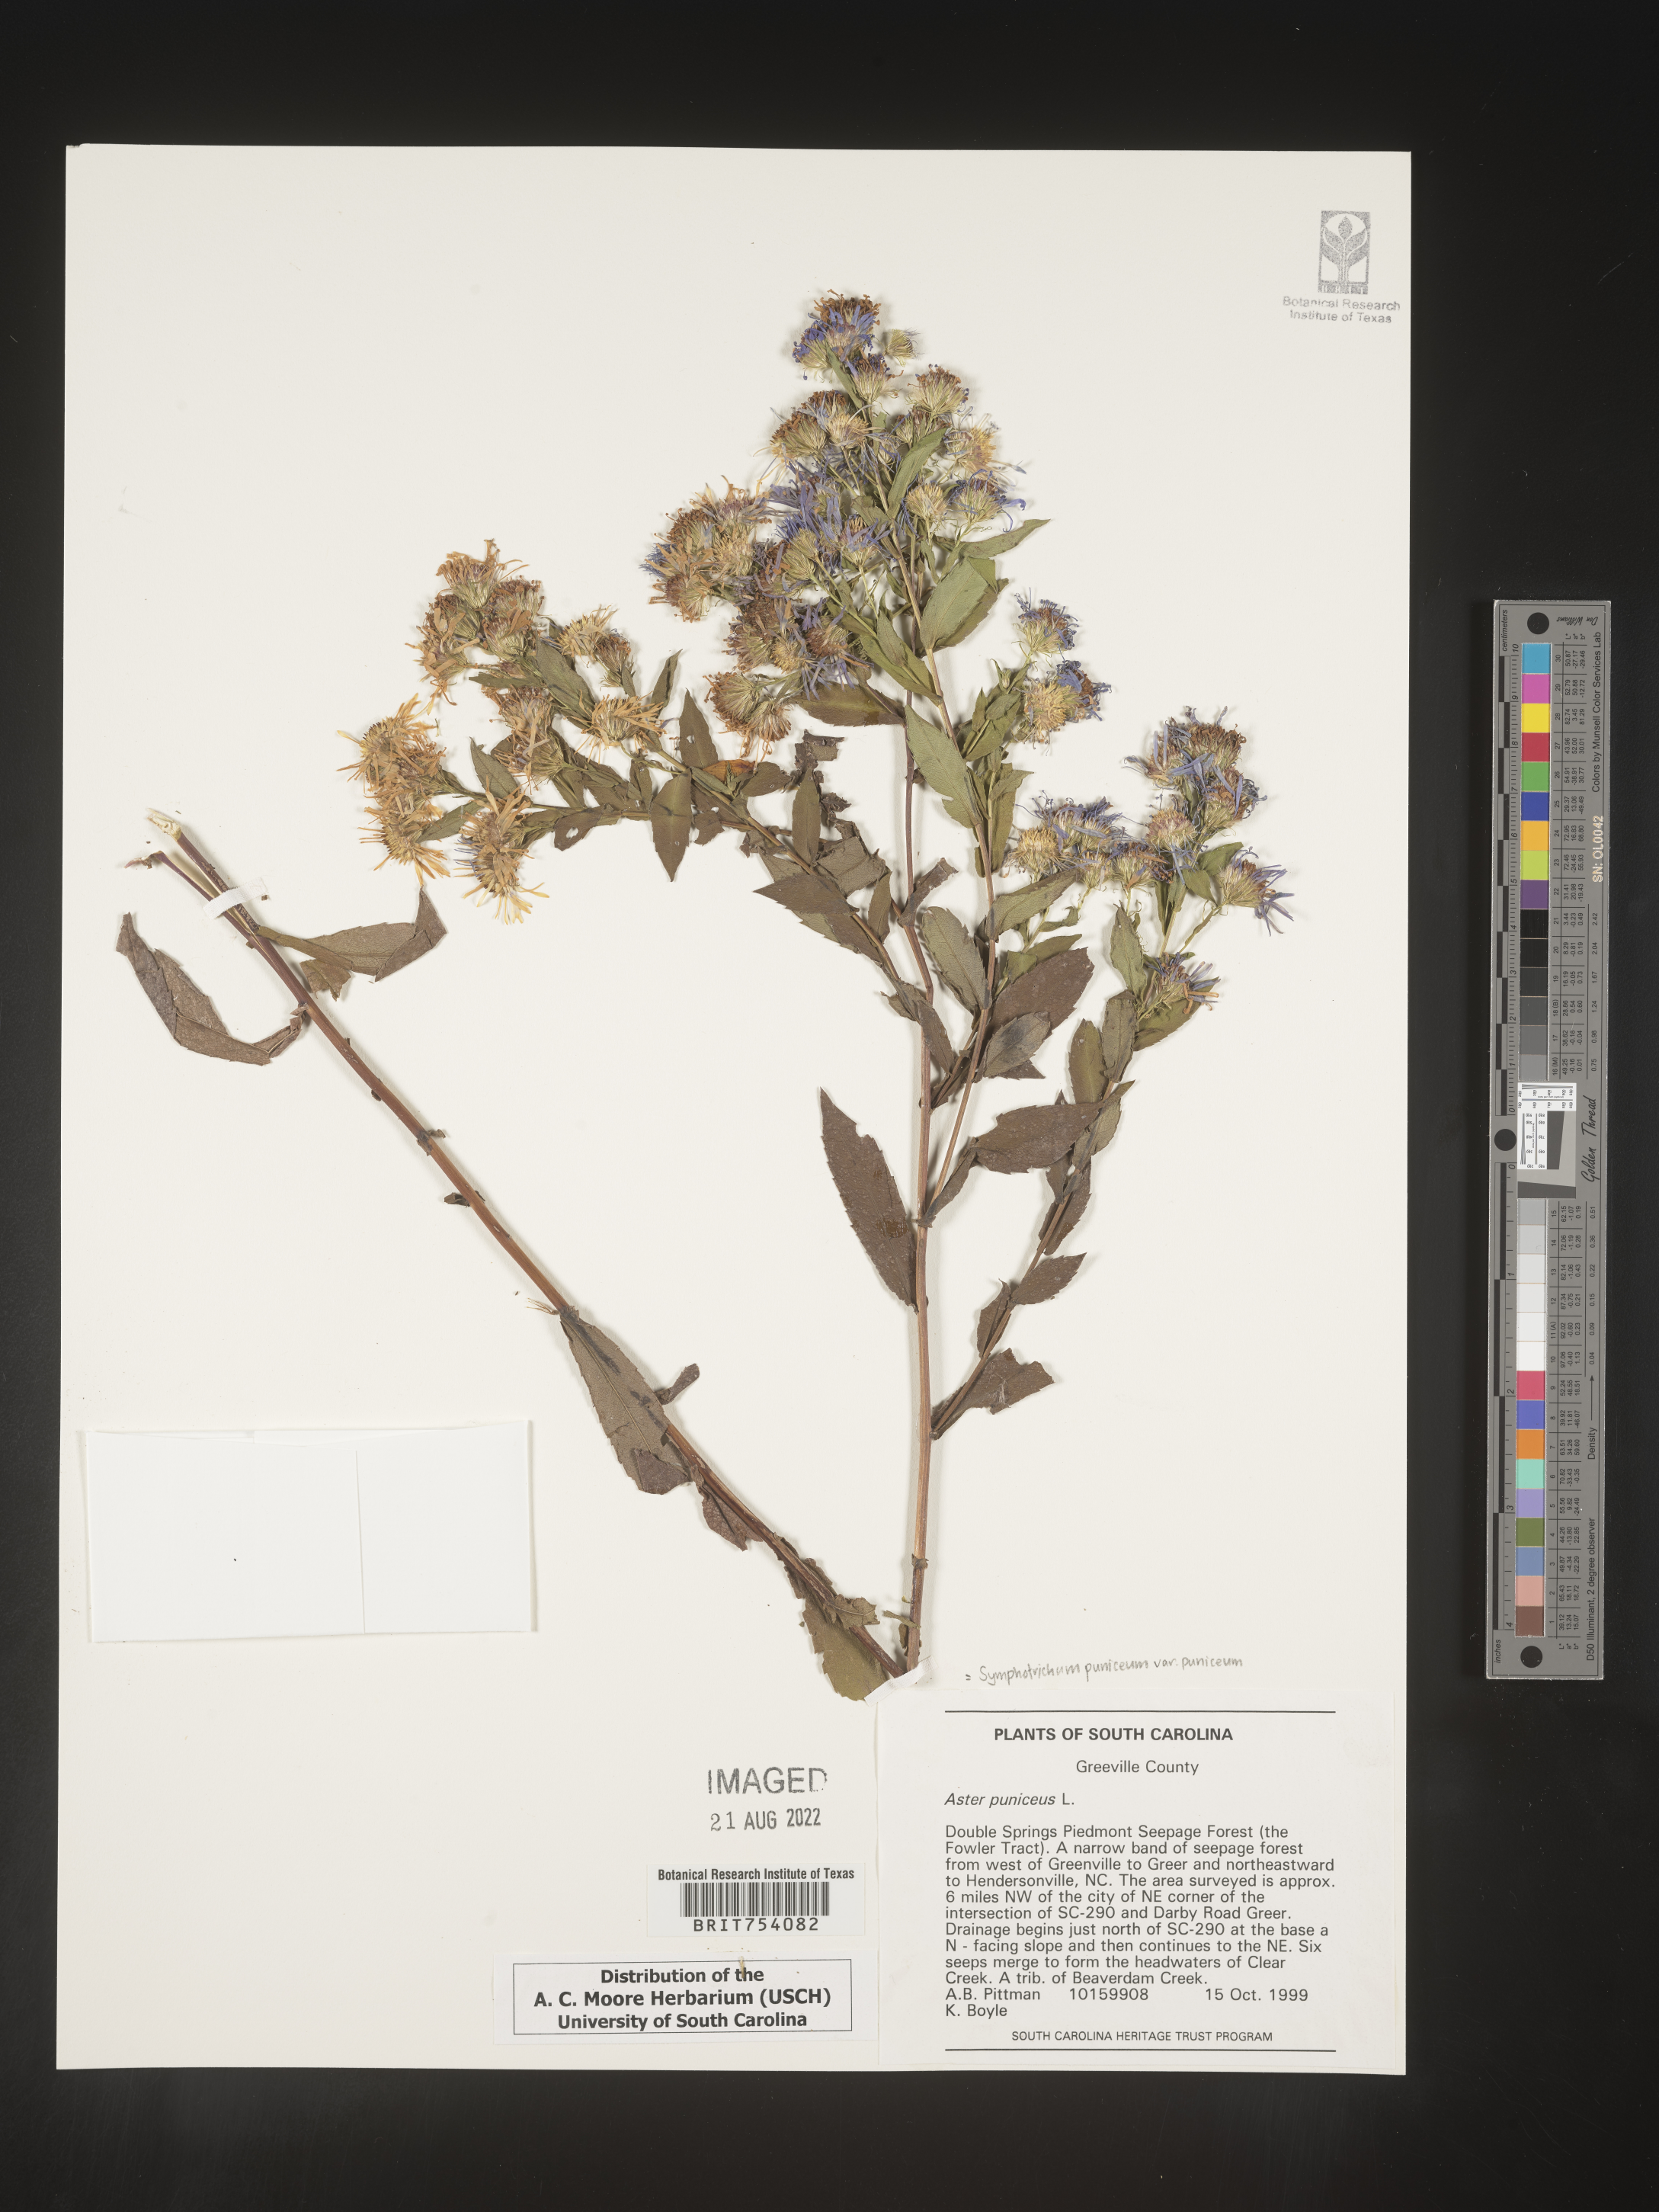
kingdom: Plantae
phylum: Tracheophyta
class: Magnoliopsida
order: Asterales
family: Asteraceae
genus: Symphyotrichum
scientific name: Symphyotrichum puniceum
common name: Bog aster
